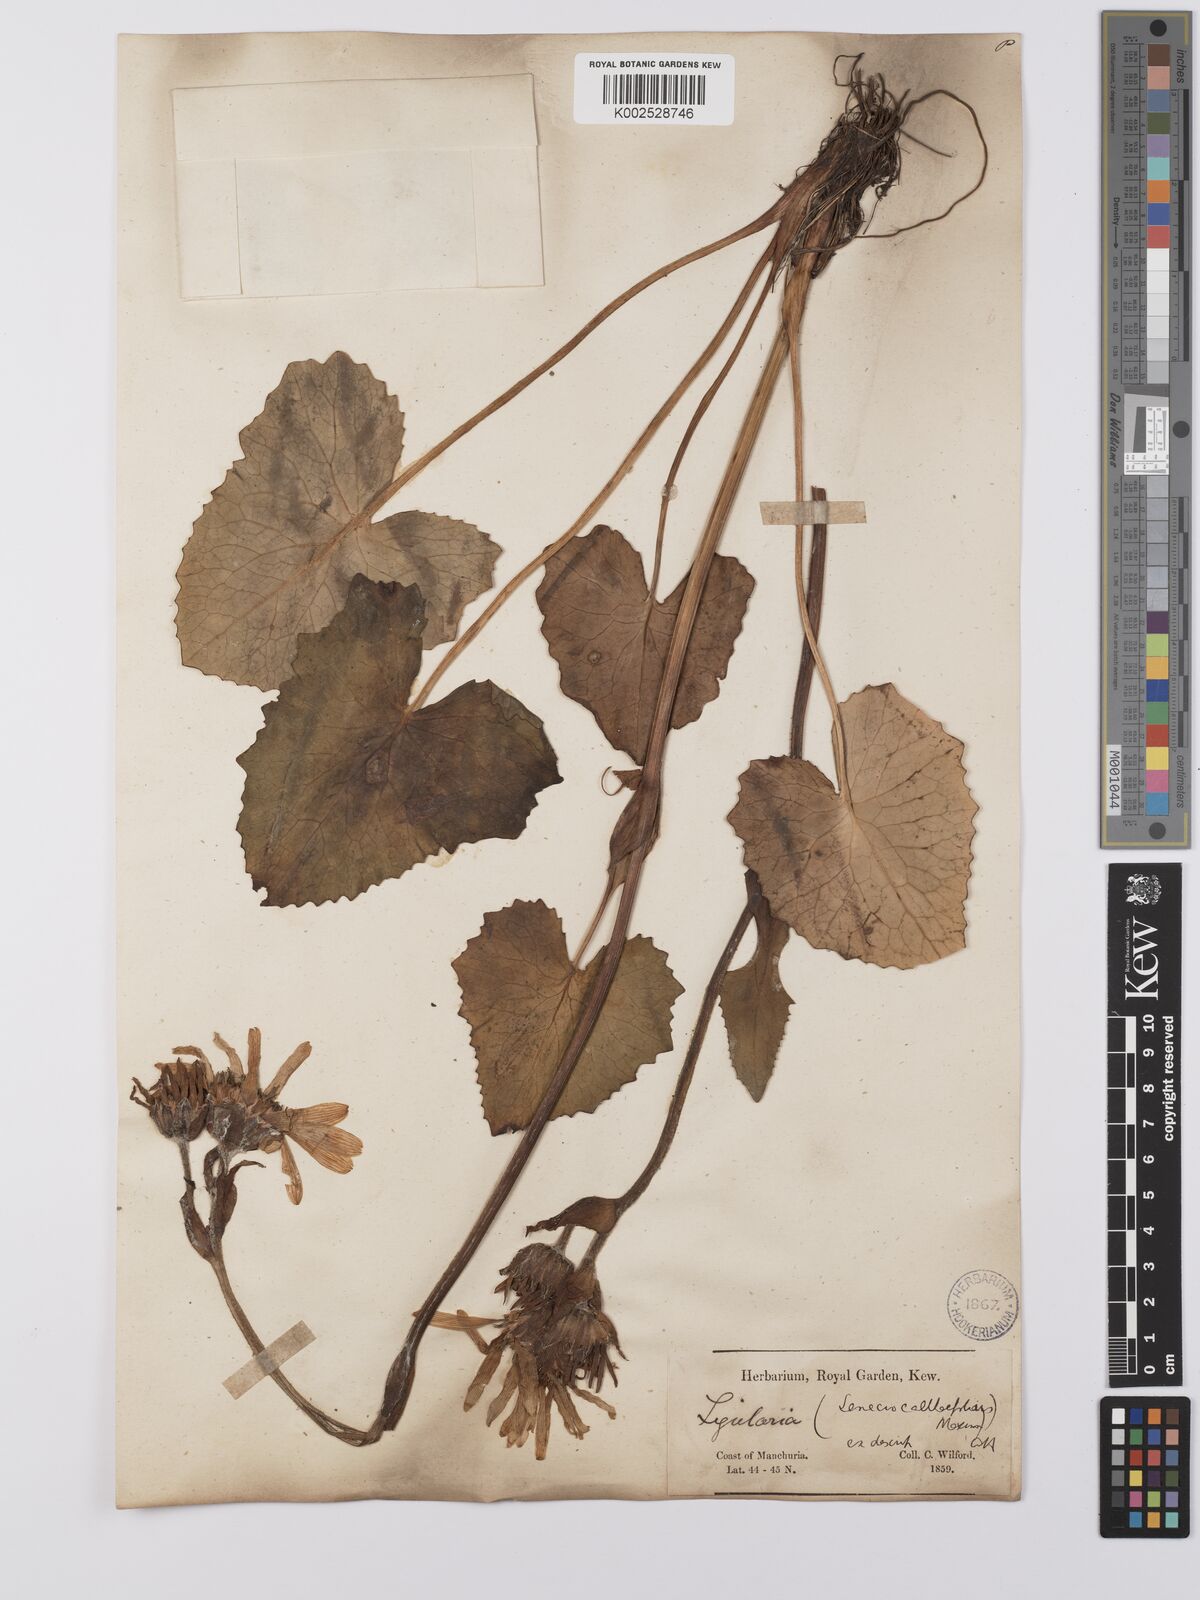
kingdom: Plantae
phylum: Tracheophyta
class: Magnoliopsida
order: Asterales
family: Asteraceae
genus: Ligularia
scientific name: Ligularia calthifolia
